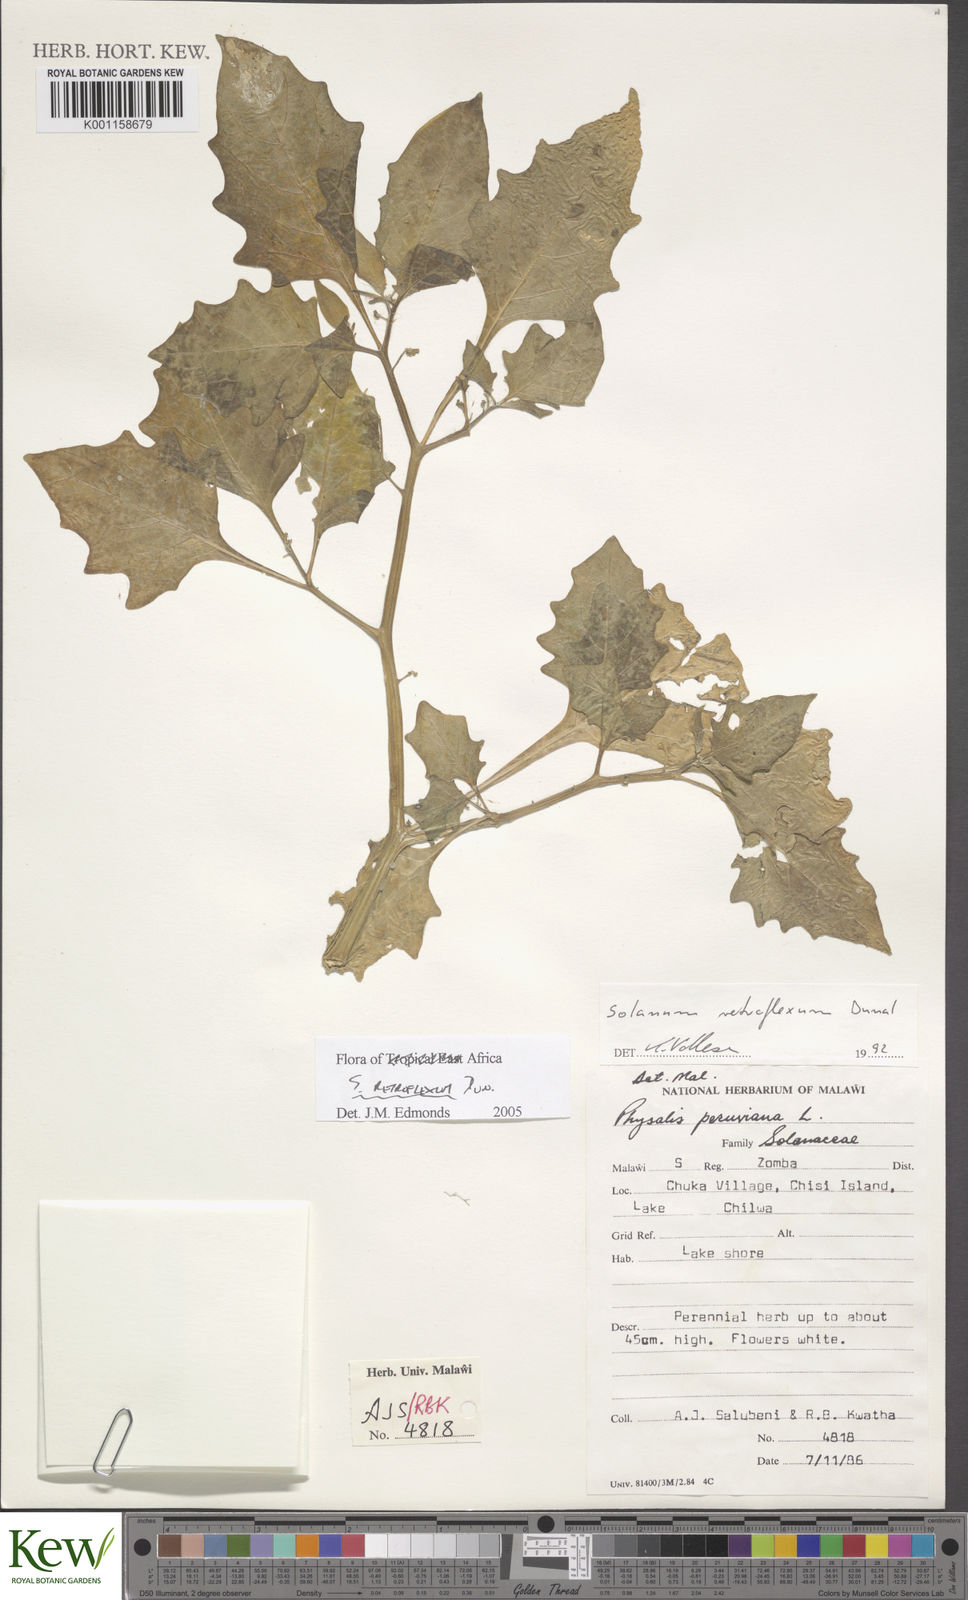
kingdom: Plantae
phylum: Tracheophyta
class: Magnoliopsida
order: Solanales
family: Solanaceae
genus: Solanum
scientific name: Solanum retroflexum
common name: Wonderberry
